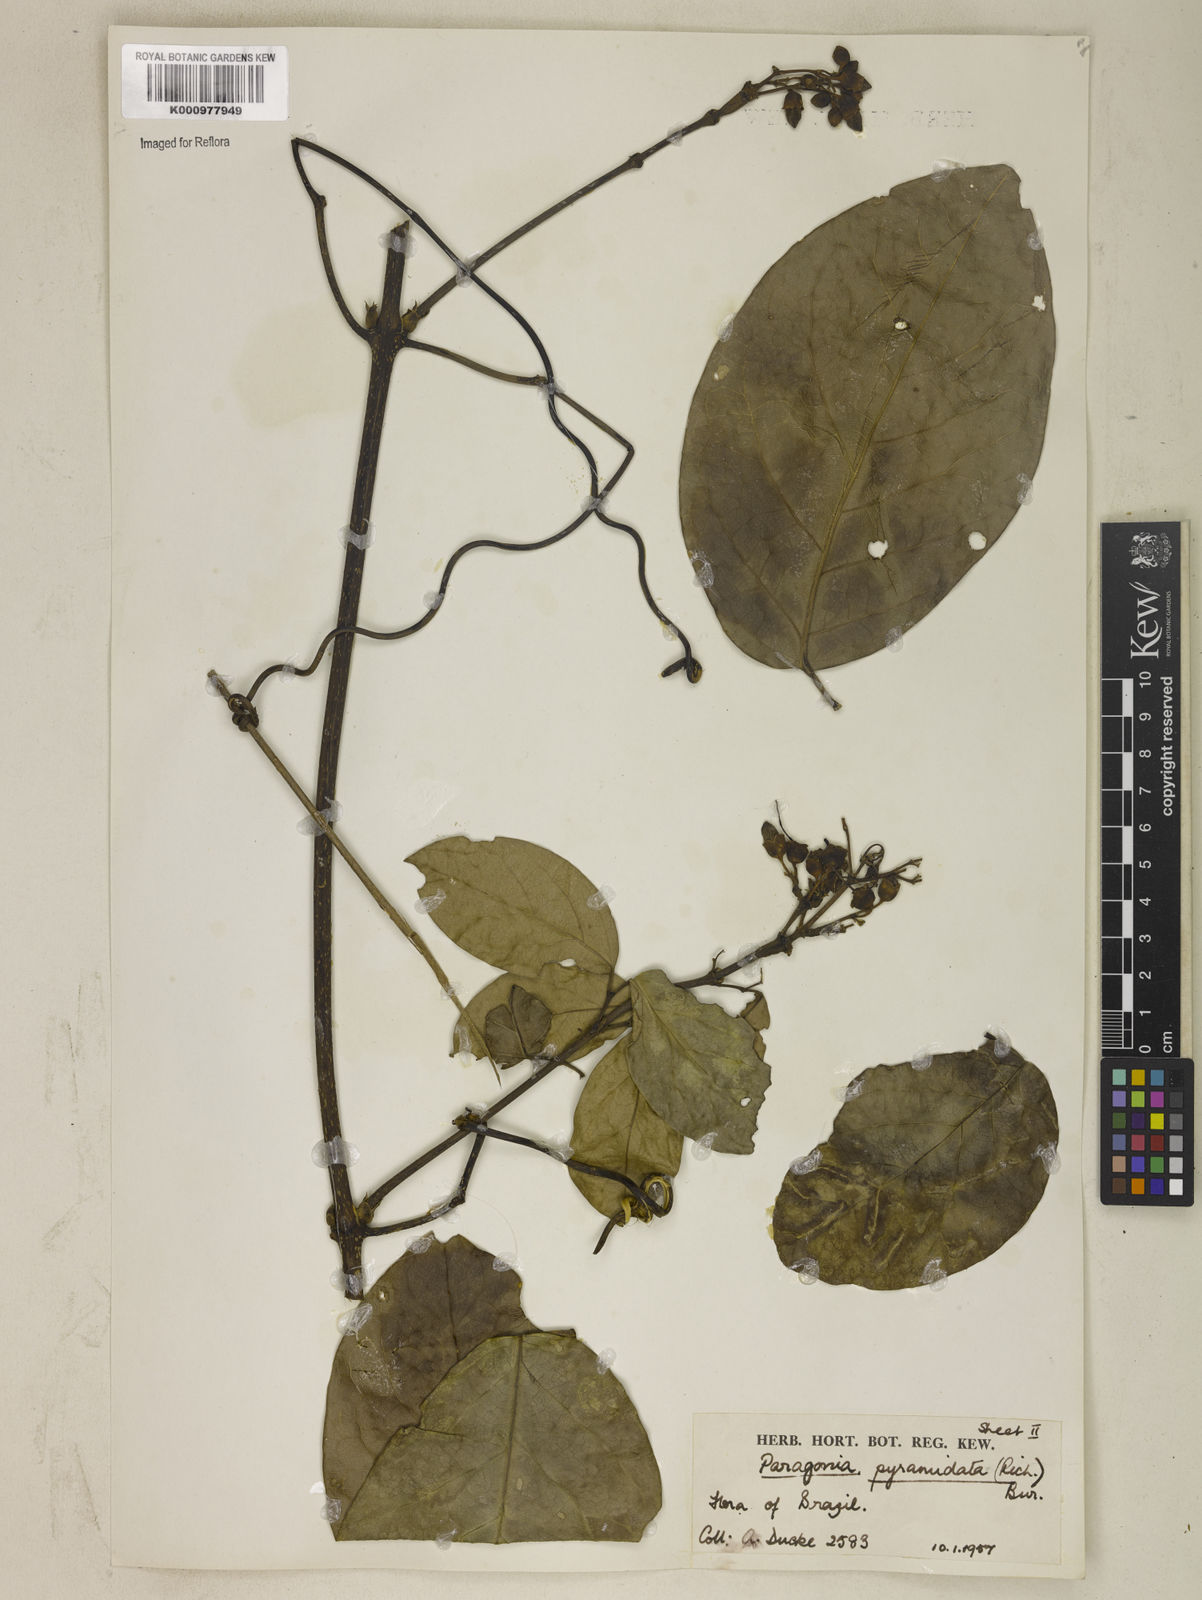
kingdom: Plantae
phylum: Tracheophyta
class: Magnoliopsida
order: Lamiales
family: Bignoniaceae
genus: Tanaecium
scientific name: Tanaecium pyramidatum
